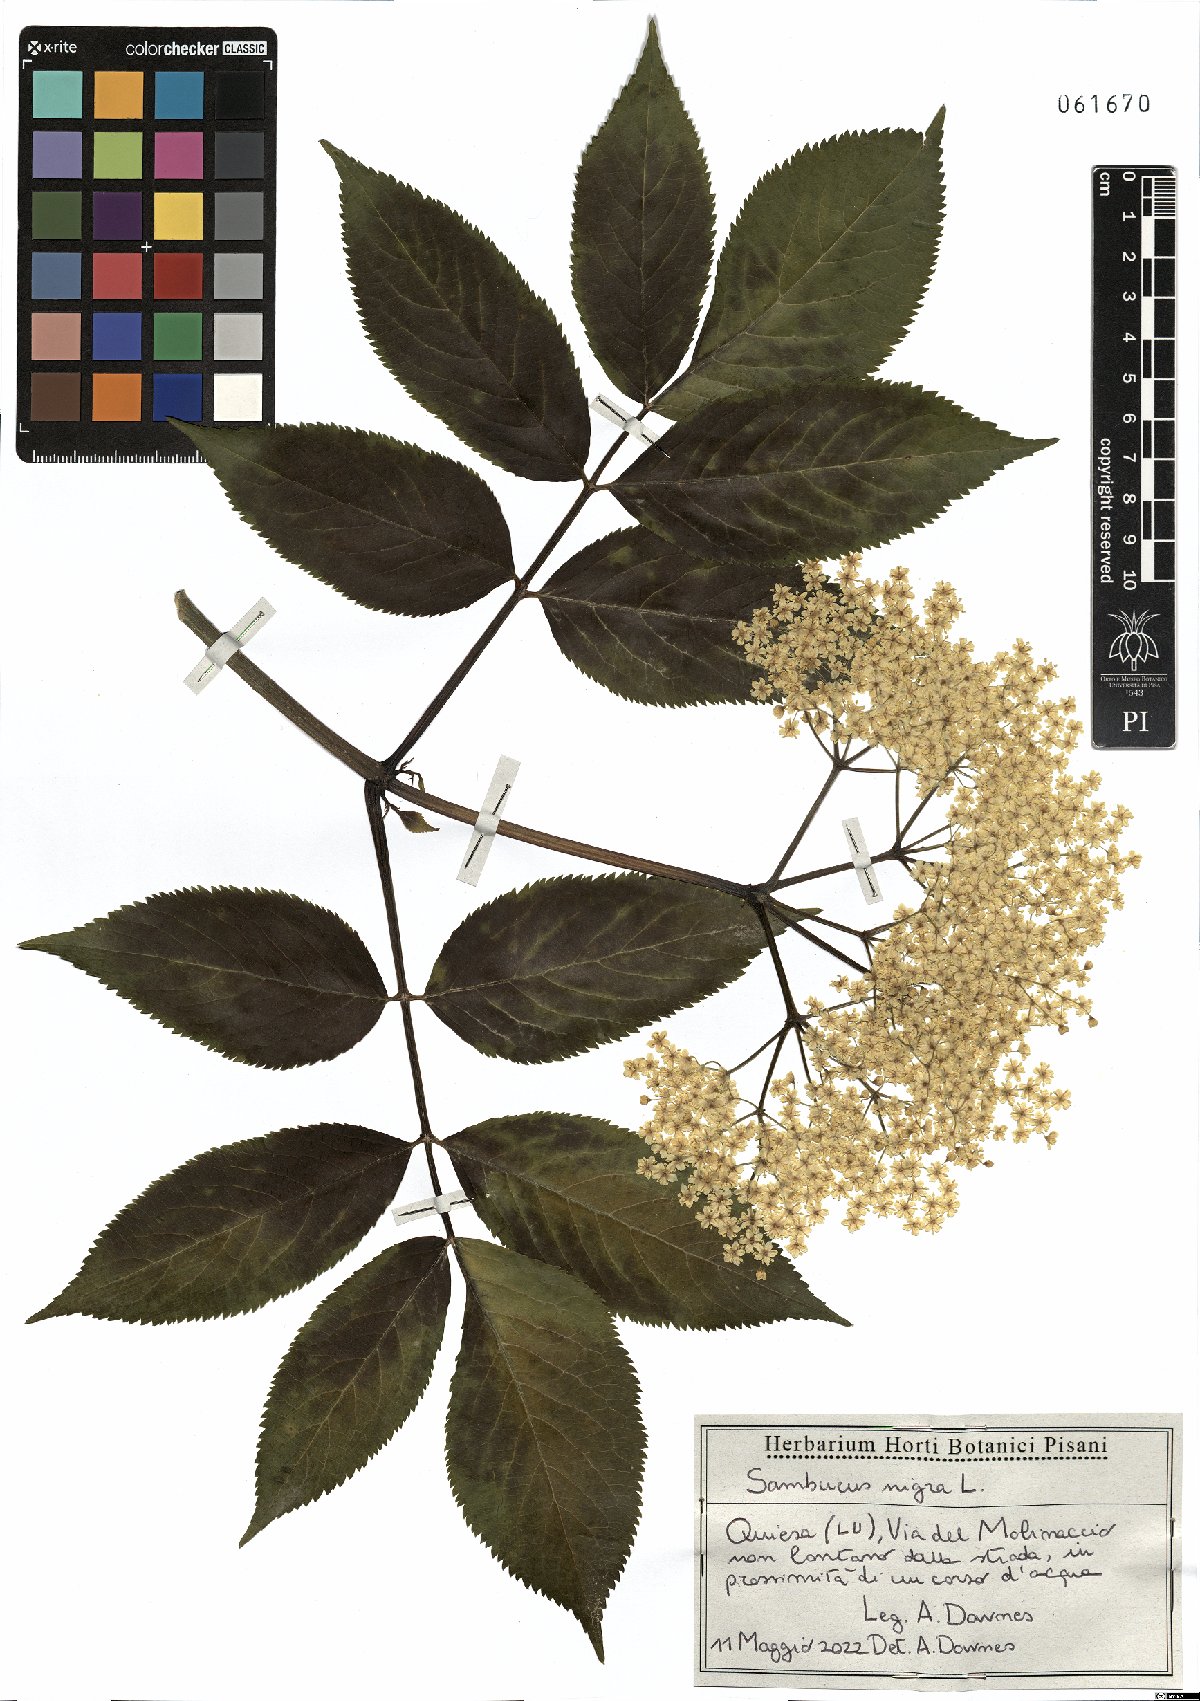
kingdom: Plantae
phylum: Tracheophyta
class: Magnoliopsida
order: Dipsacales
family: Viburnaceae
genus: Sambucus
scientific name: Sambucus nigra
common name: Elder
